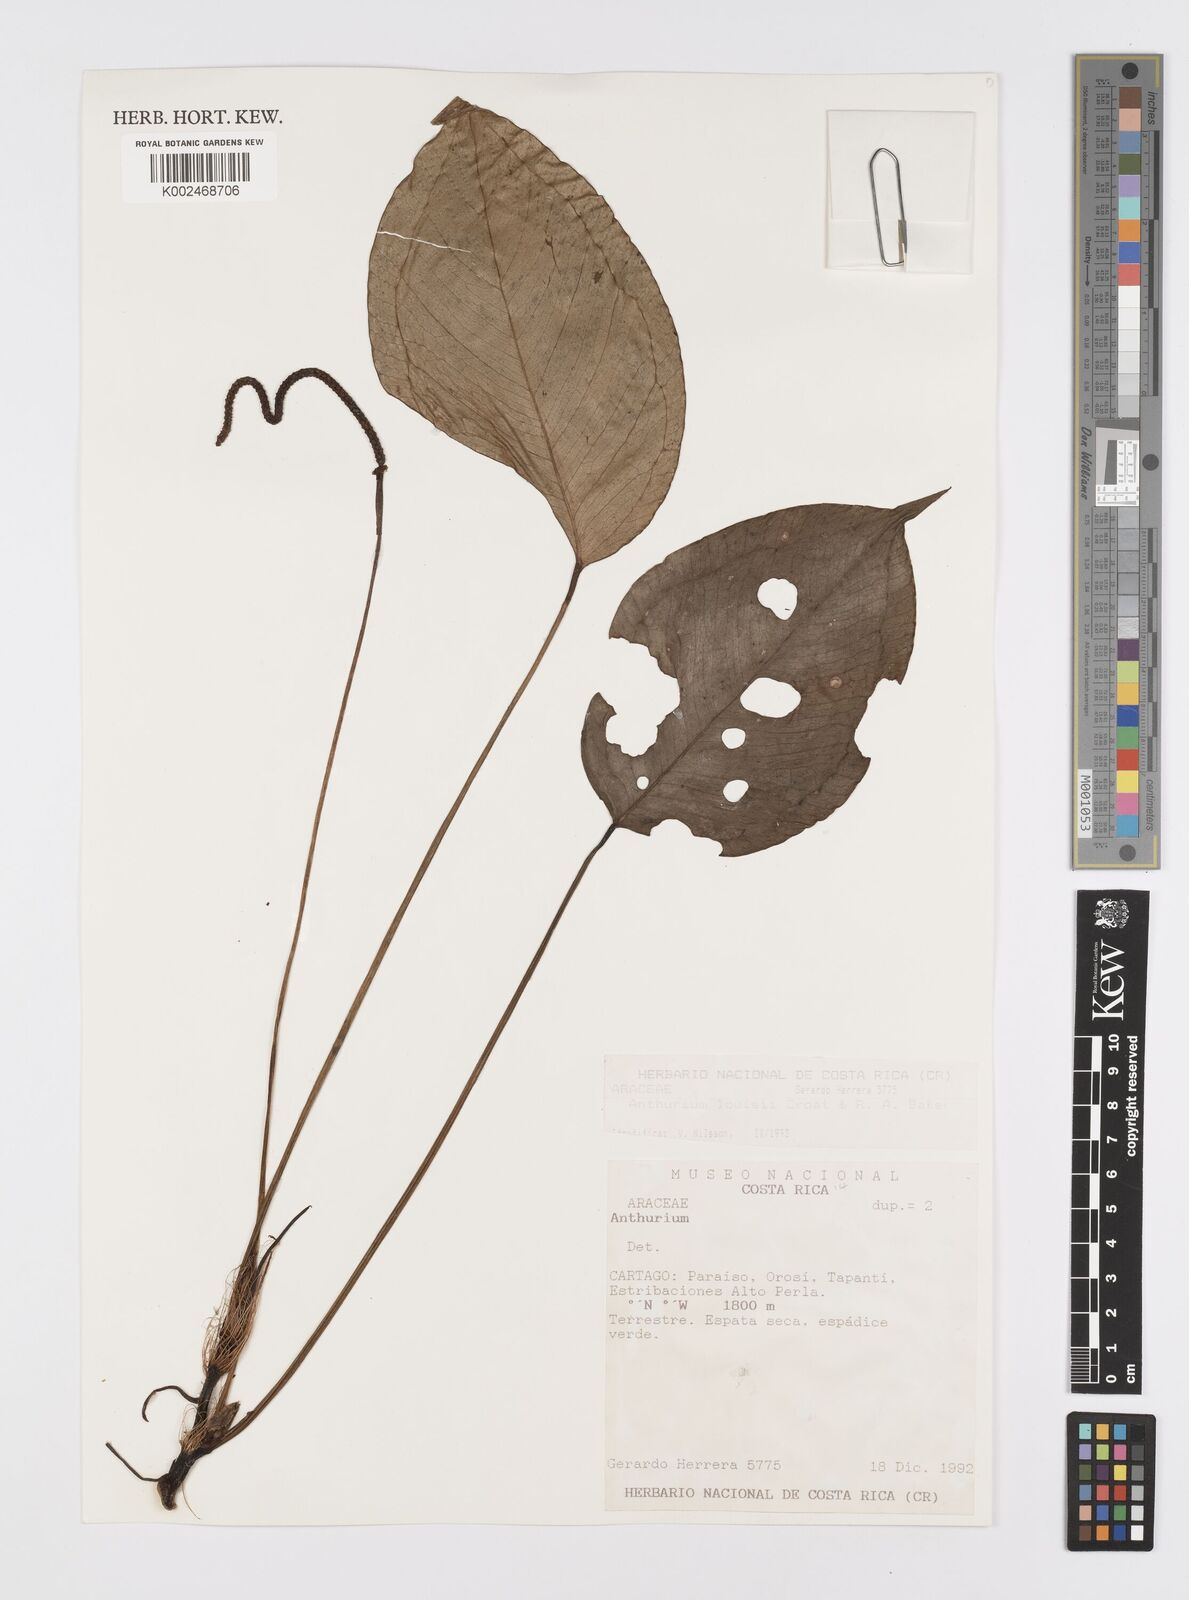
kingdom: Plantae
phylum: Tracheophyta
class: Liliopsida
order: Alismatales
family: Araceae
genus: Anthurium
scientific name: Anthurium louisii
